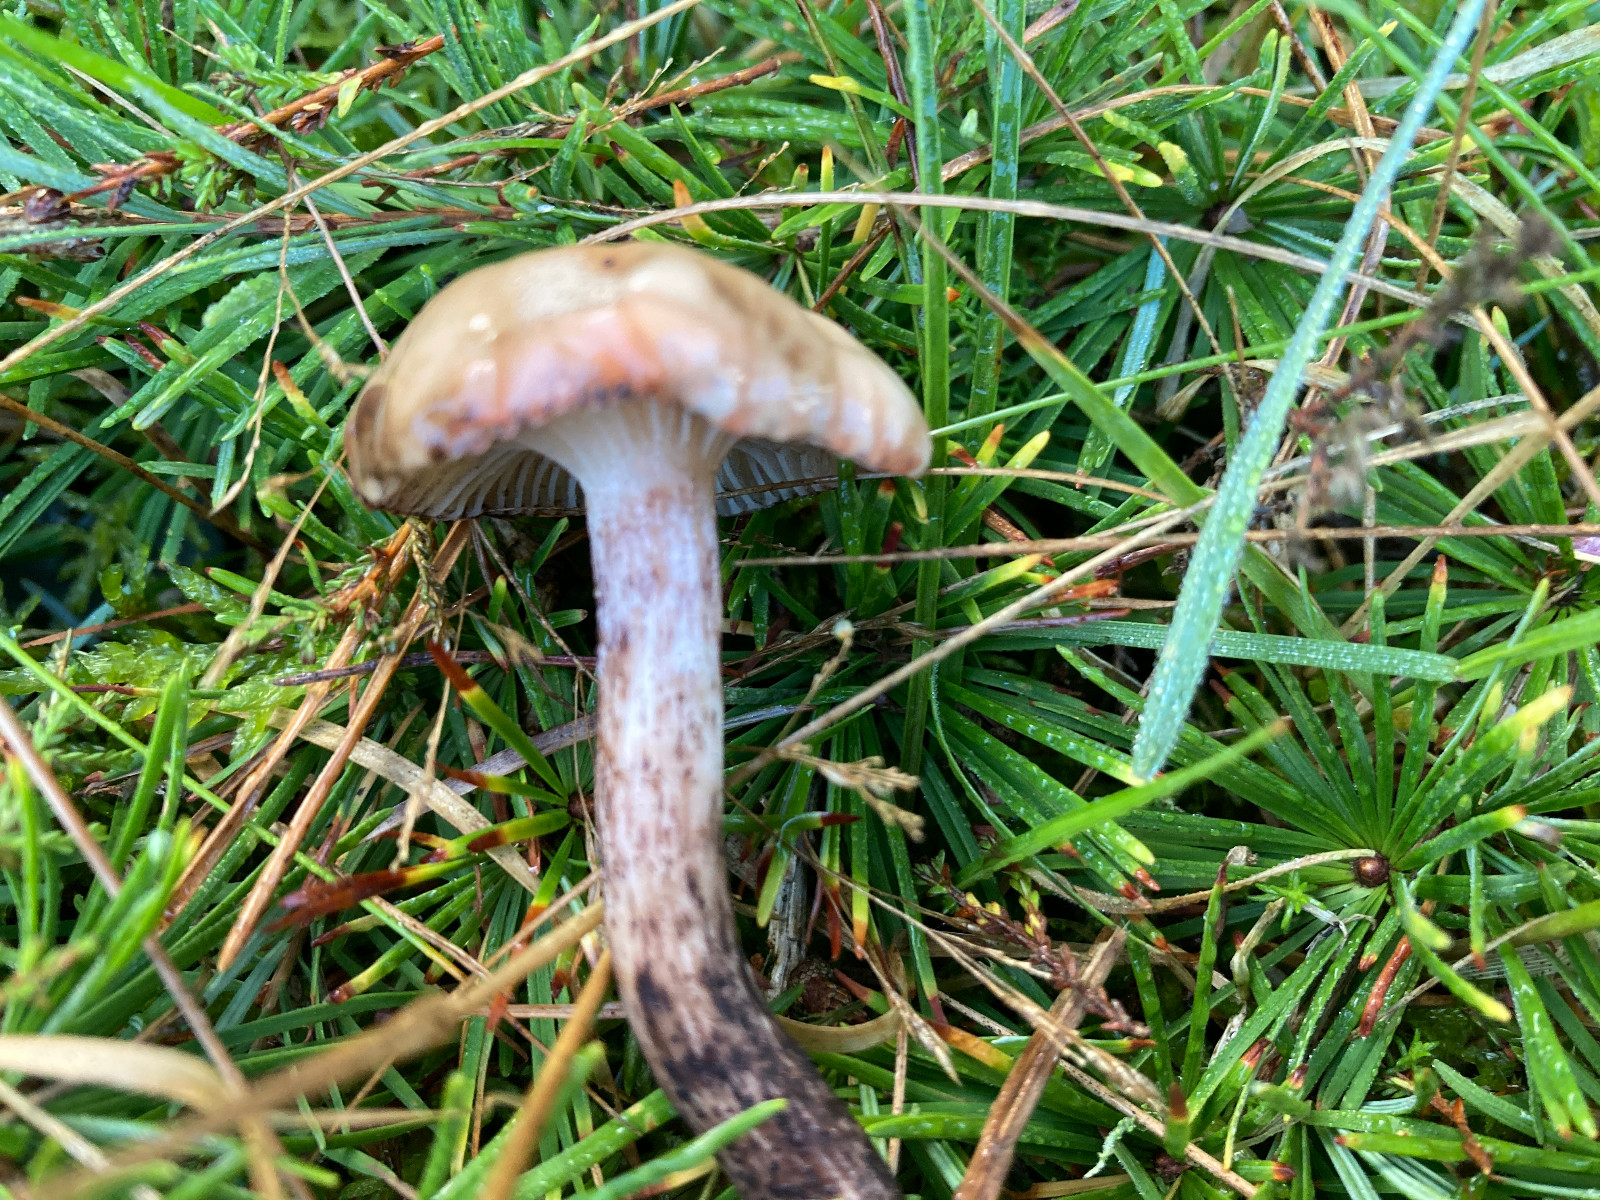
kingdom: Fungi
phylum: Basidiomycota
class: Agaricomycetes
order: Boletales
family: Gomphidiaceae
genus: Gomphidius
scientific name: Gomphidius maculatus
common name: rødmende slimslør
